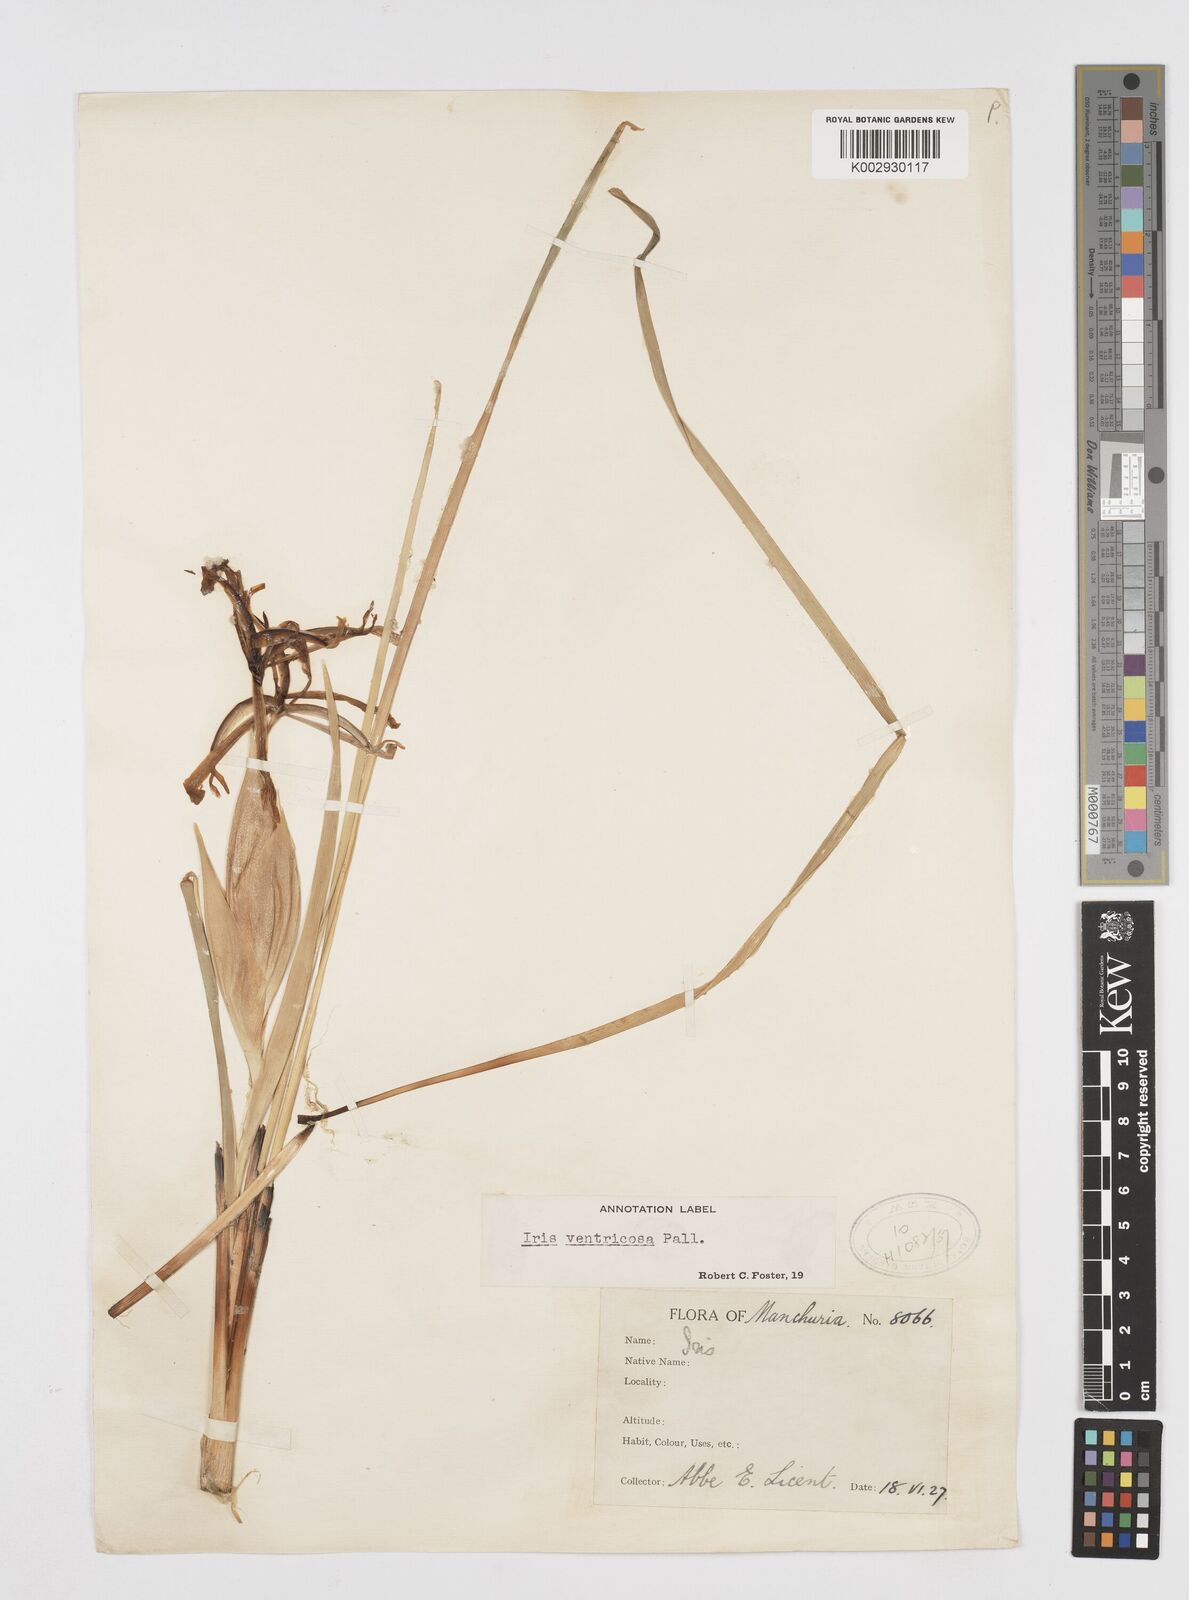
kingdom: Plantae
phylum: Tracheophyta
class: Liliopsida
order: Asparagales
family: Iridaceae
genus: Iris
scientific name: Iris ventricosa
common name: Purple-flower iris
